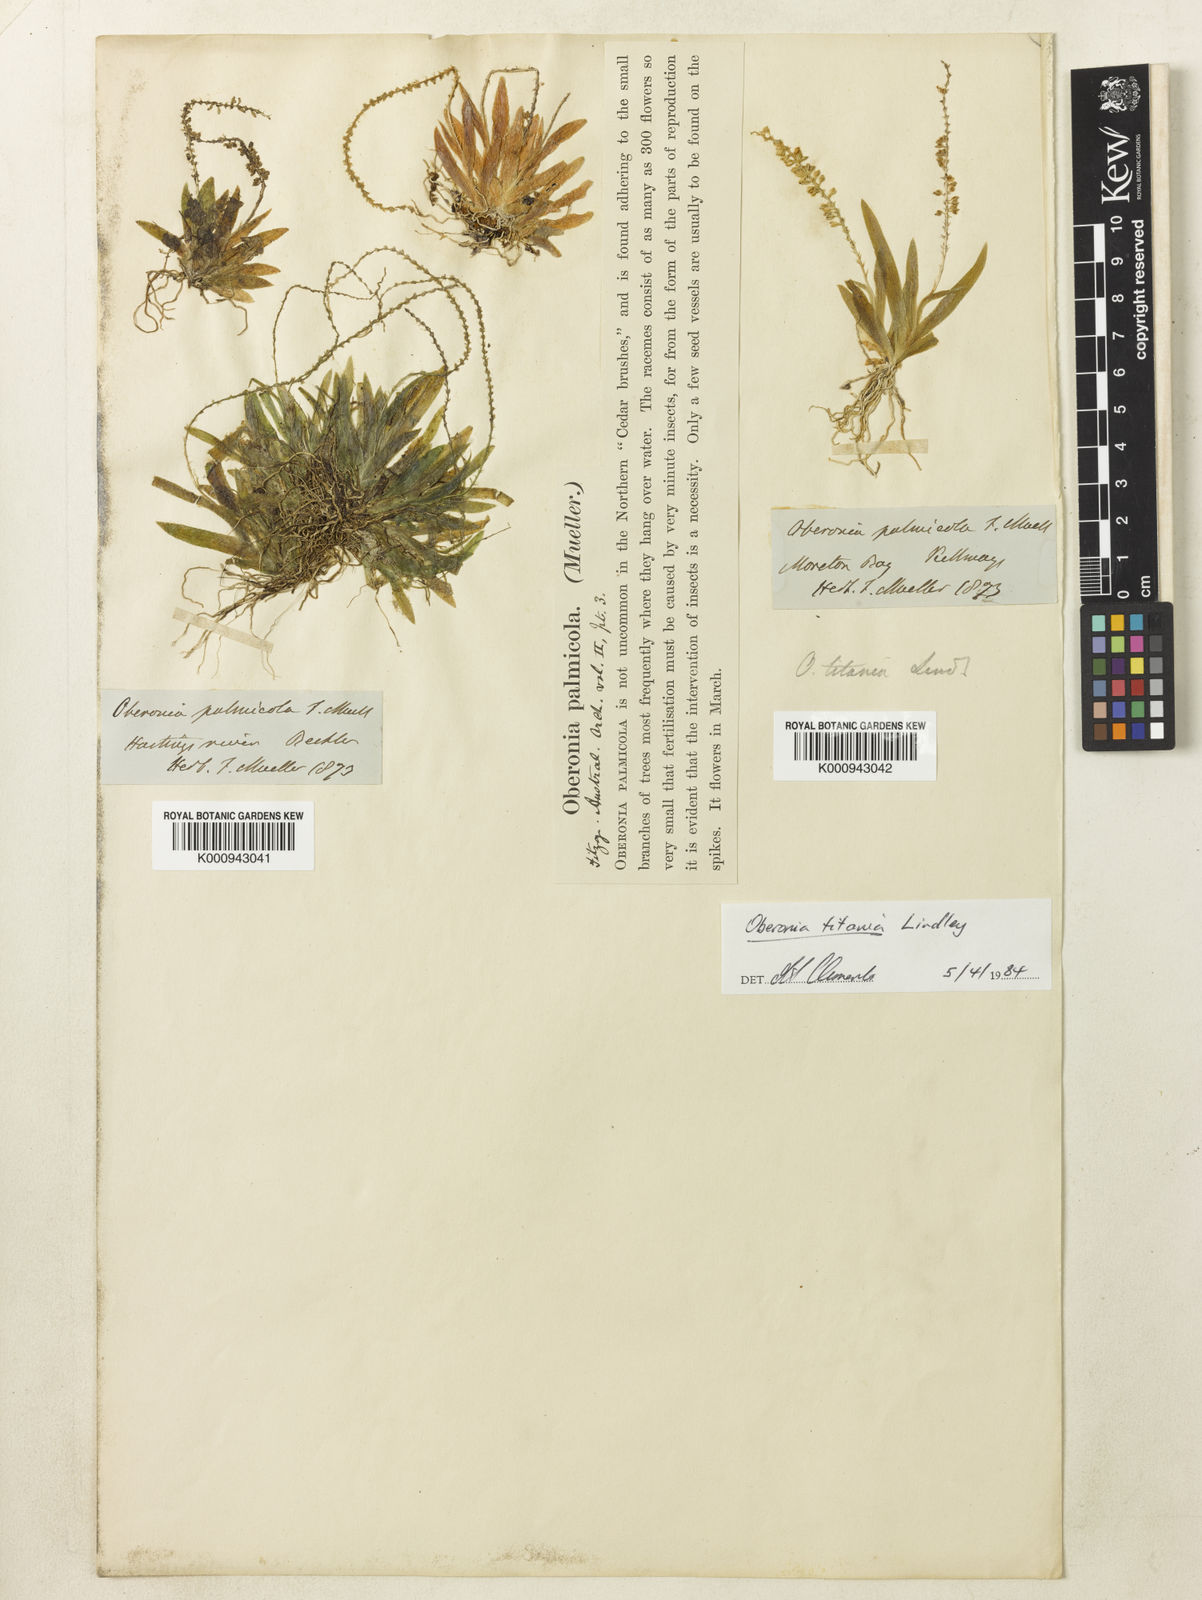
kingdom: Plantae
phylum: Tracheophyta
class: Liliopsida
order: Asparagales
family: Orchidaceae
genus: Oberonia
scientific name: Oberonia titania
